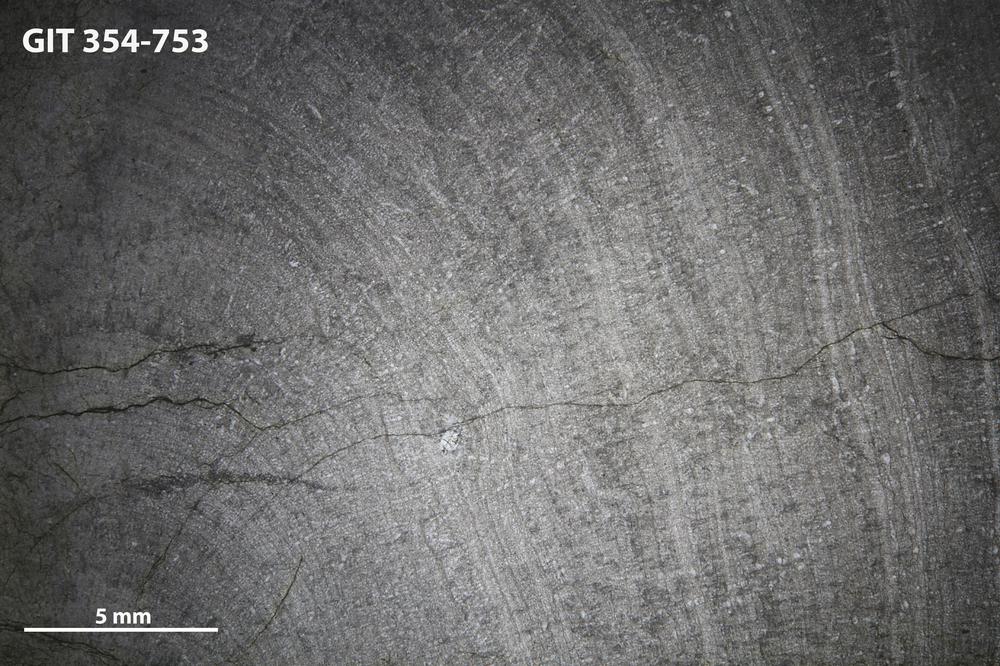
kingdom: Animalia
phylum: Porifera
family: Densastromatidae
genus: Araneosustroma
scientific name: Araneosustroma
